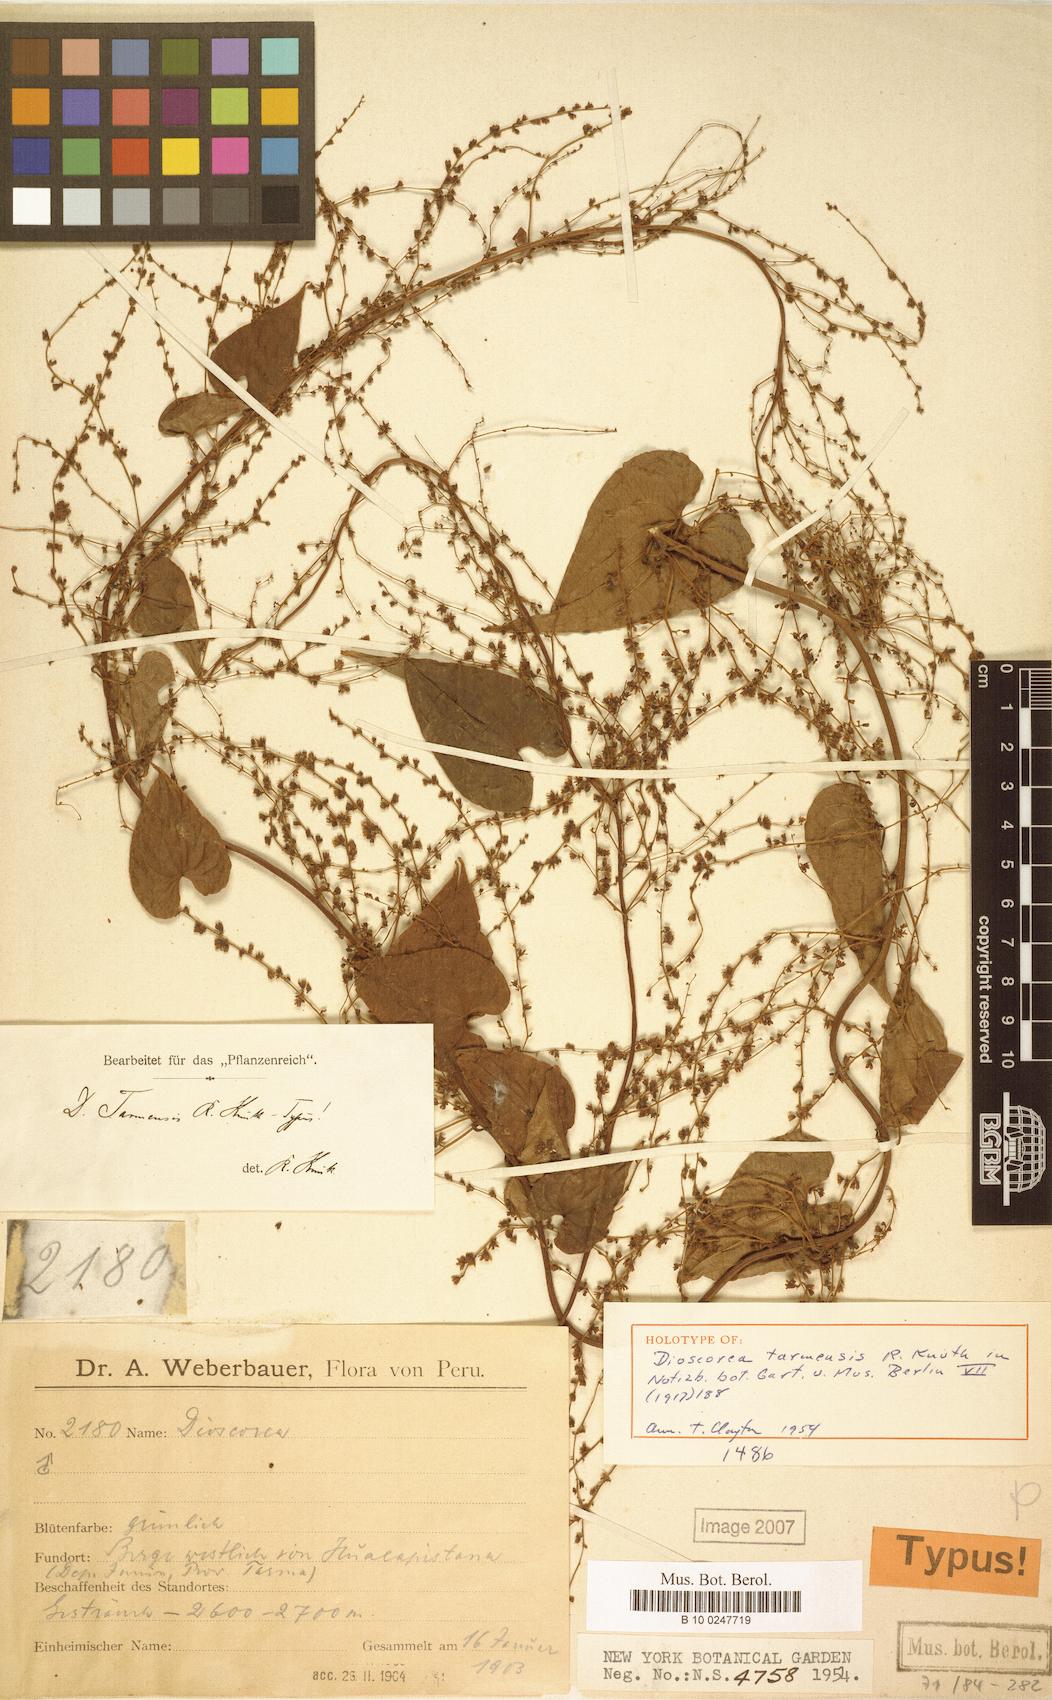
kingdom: Plantae
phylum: Tracheophyta
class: Liliopsida
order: Dioscoreales
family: Dioscoreaceae
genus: Dioscorea
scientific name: Dioscorea tarmensis
